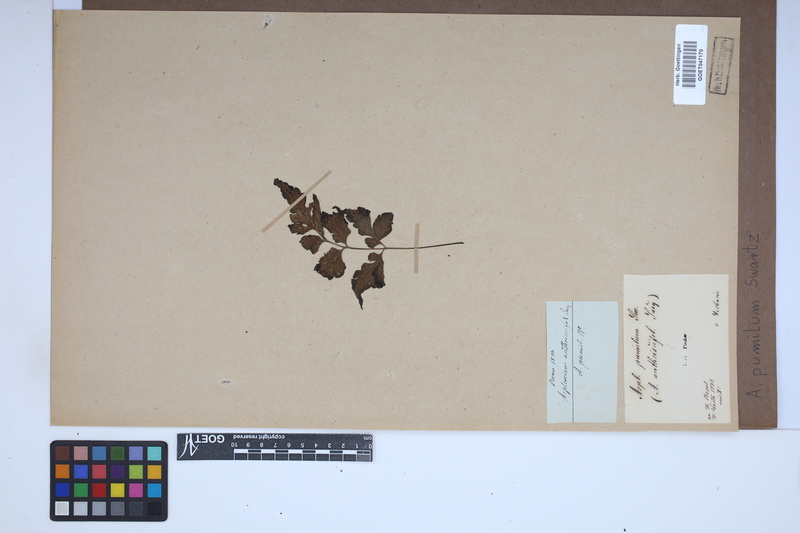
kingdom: Plantae
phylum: Tracheophyta
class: Polypodiopsida
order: Polypodiales
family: Aspleniaceae
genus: Asplenium
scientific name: Asplenium pumilum
